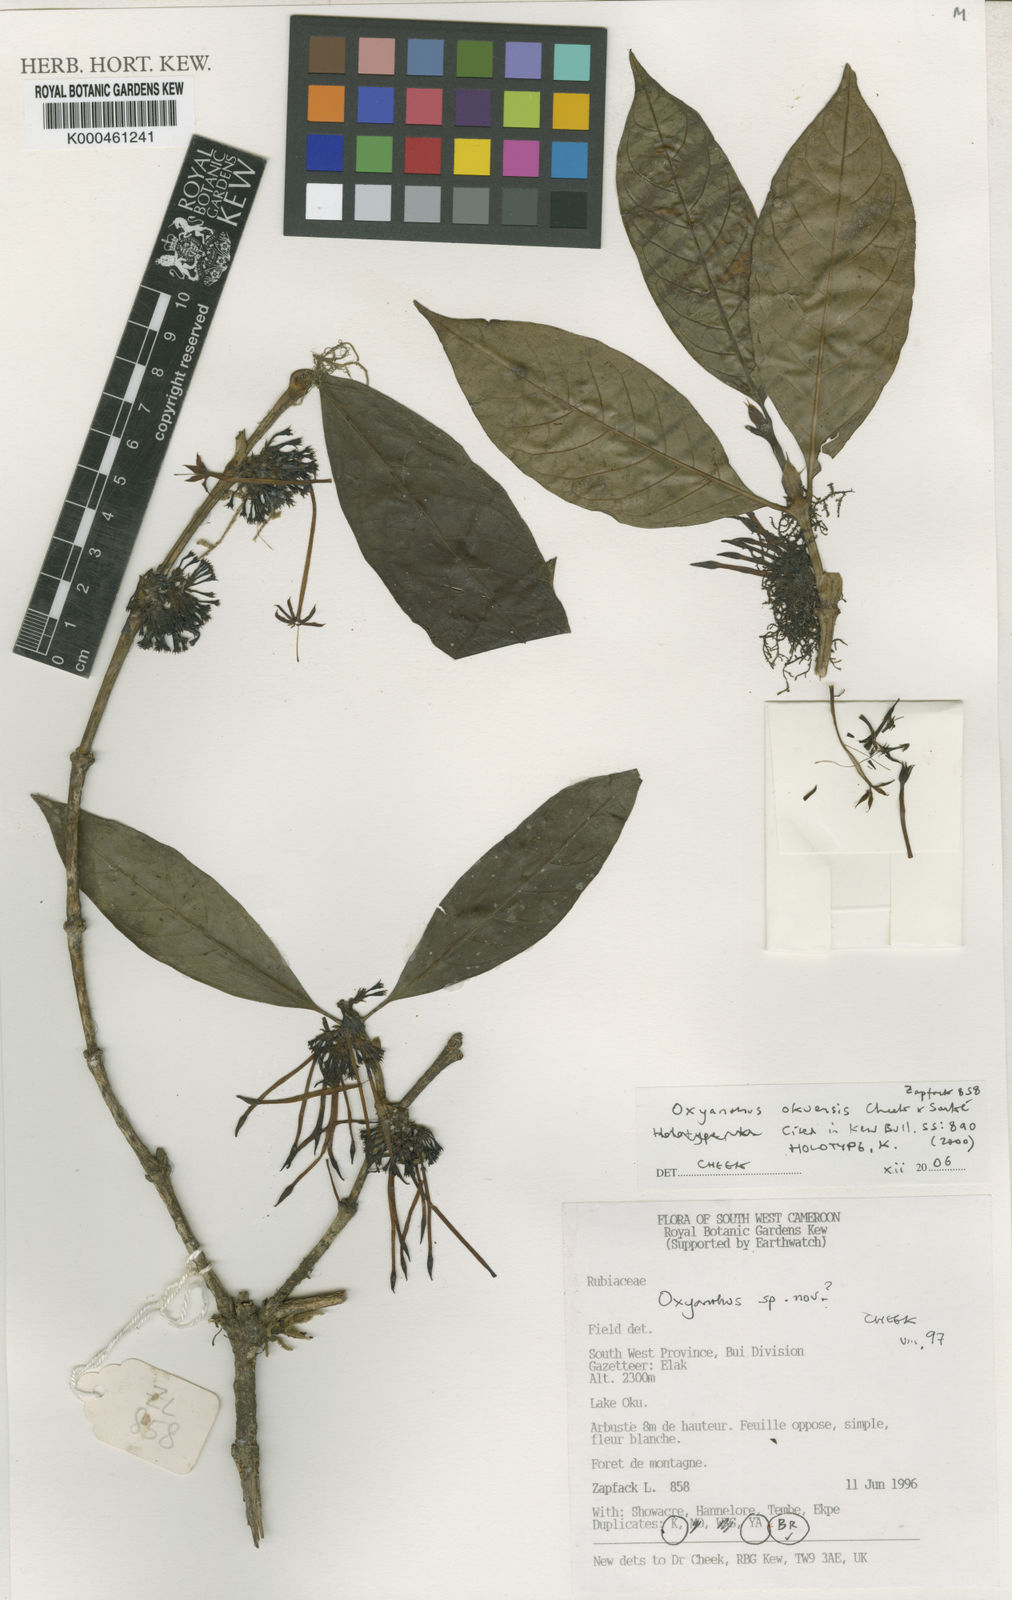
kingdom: Plantae
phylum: Tracheophyta
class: Magnoliopsida
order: Gentianales
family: Rubiaceae
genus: Oxyanthus
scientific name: Oxyanthus
